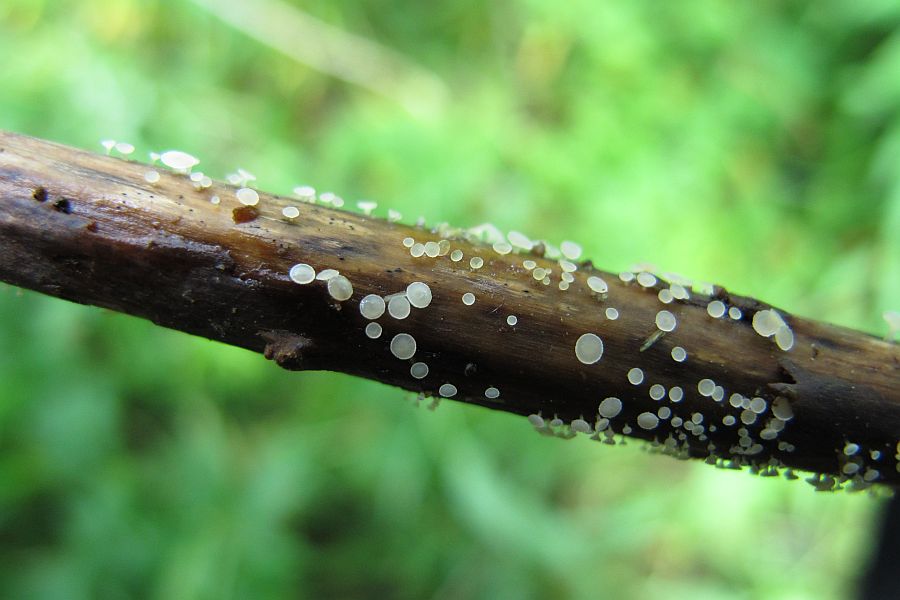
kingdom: Fungi
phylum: Ascomycota
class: Leotiomycetes
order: Helotiales
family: Helotiaceae
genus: Cyathicula
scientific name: Cyathicula cyathoidea
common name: pokal-stilkskive
